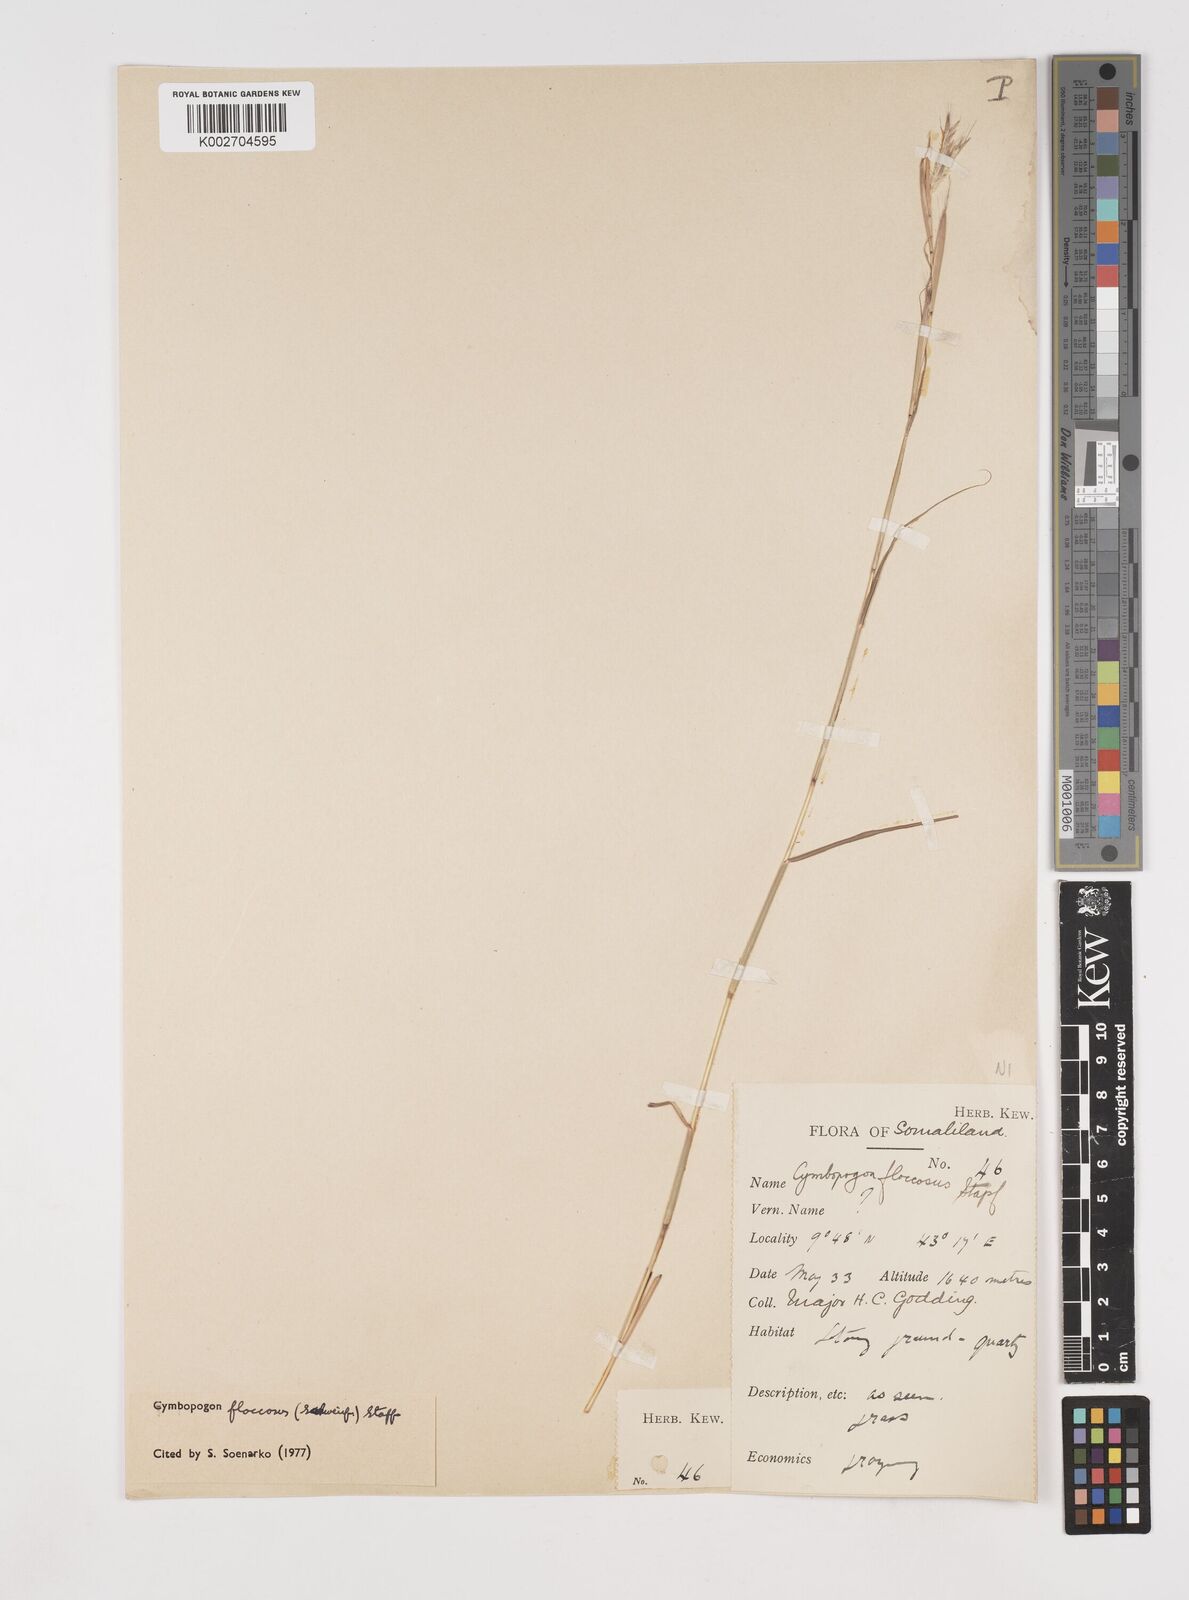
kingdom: Plantae
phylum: Tracheophyta
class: Liliopsida
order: Poales
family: Poaceae
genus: Cymbopogon
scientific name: Cymbopogon commutatus
